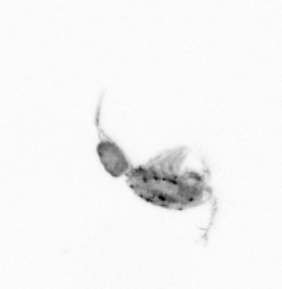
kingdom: Animalia
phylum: Arthropoda
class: Copepoda
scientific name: Copepoda
